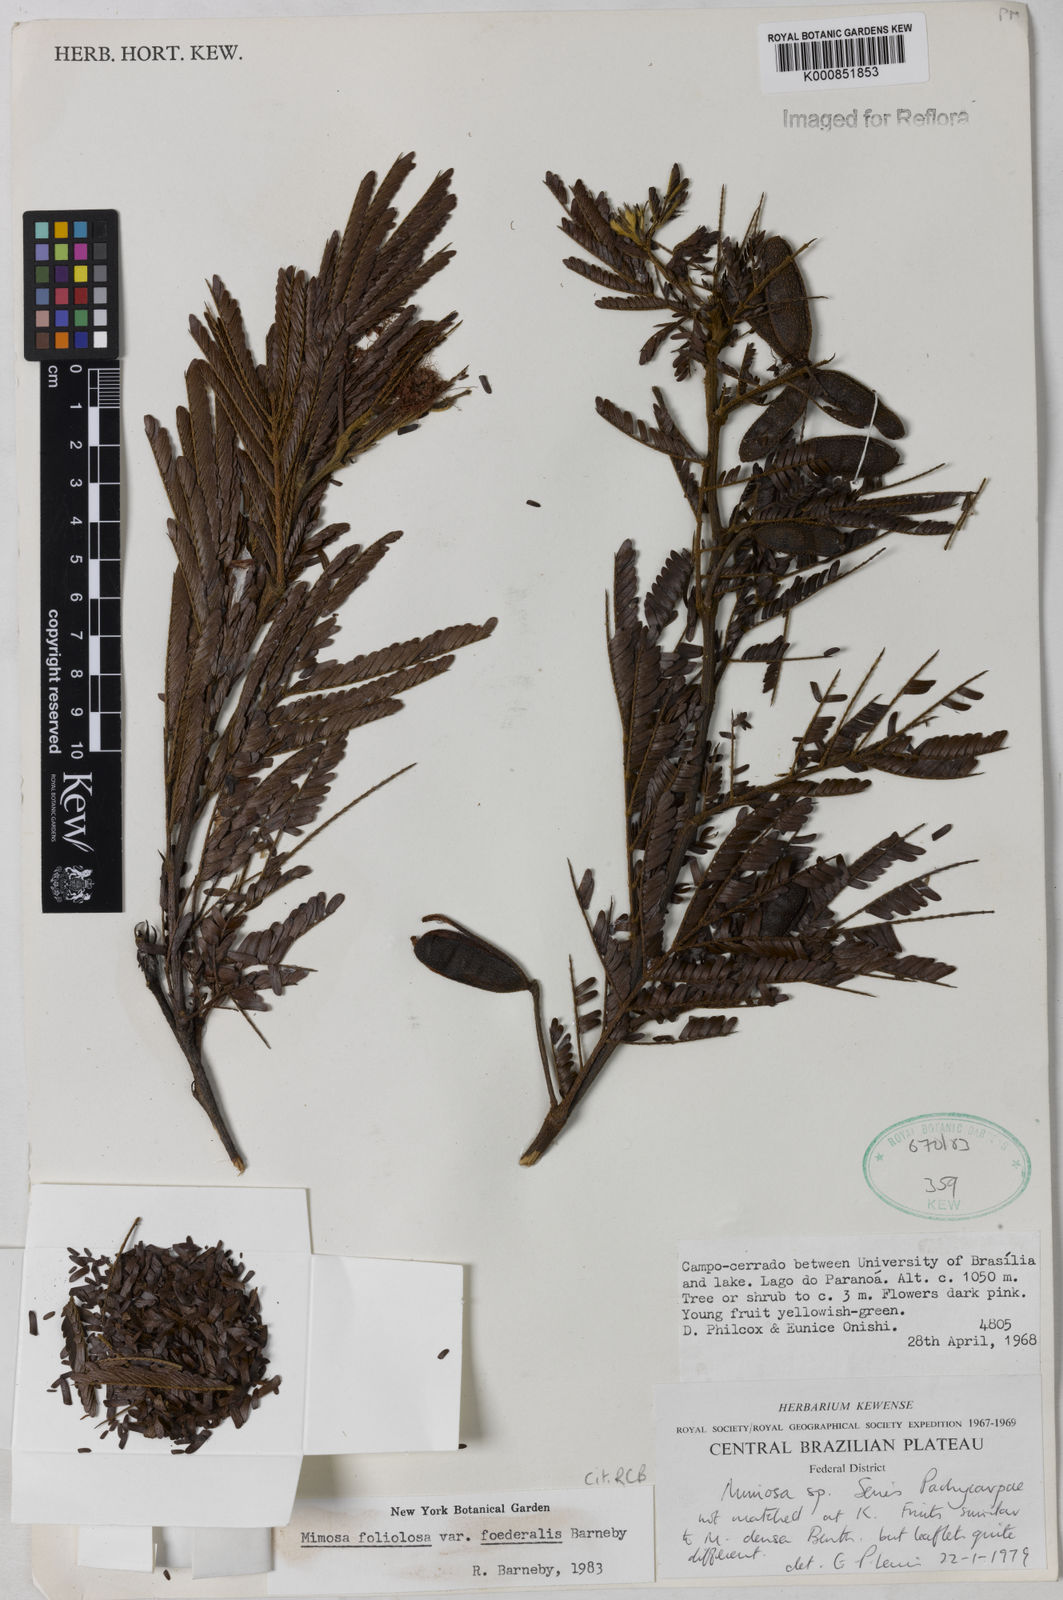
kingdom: Plantae
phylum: Tracheophyta
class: Magnoliopsida
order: Fabales
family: Fabaceae
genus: Mimosa
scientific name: Mimosa foliolosa
